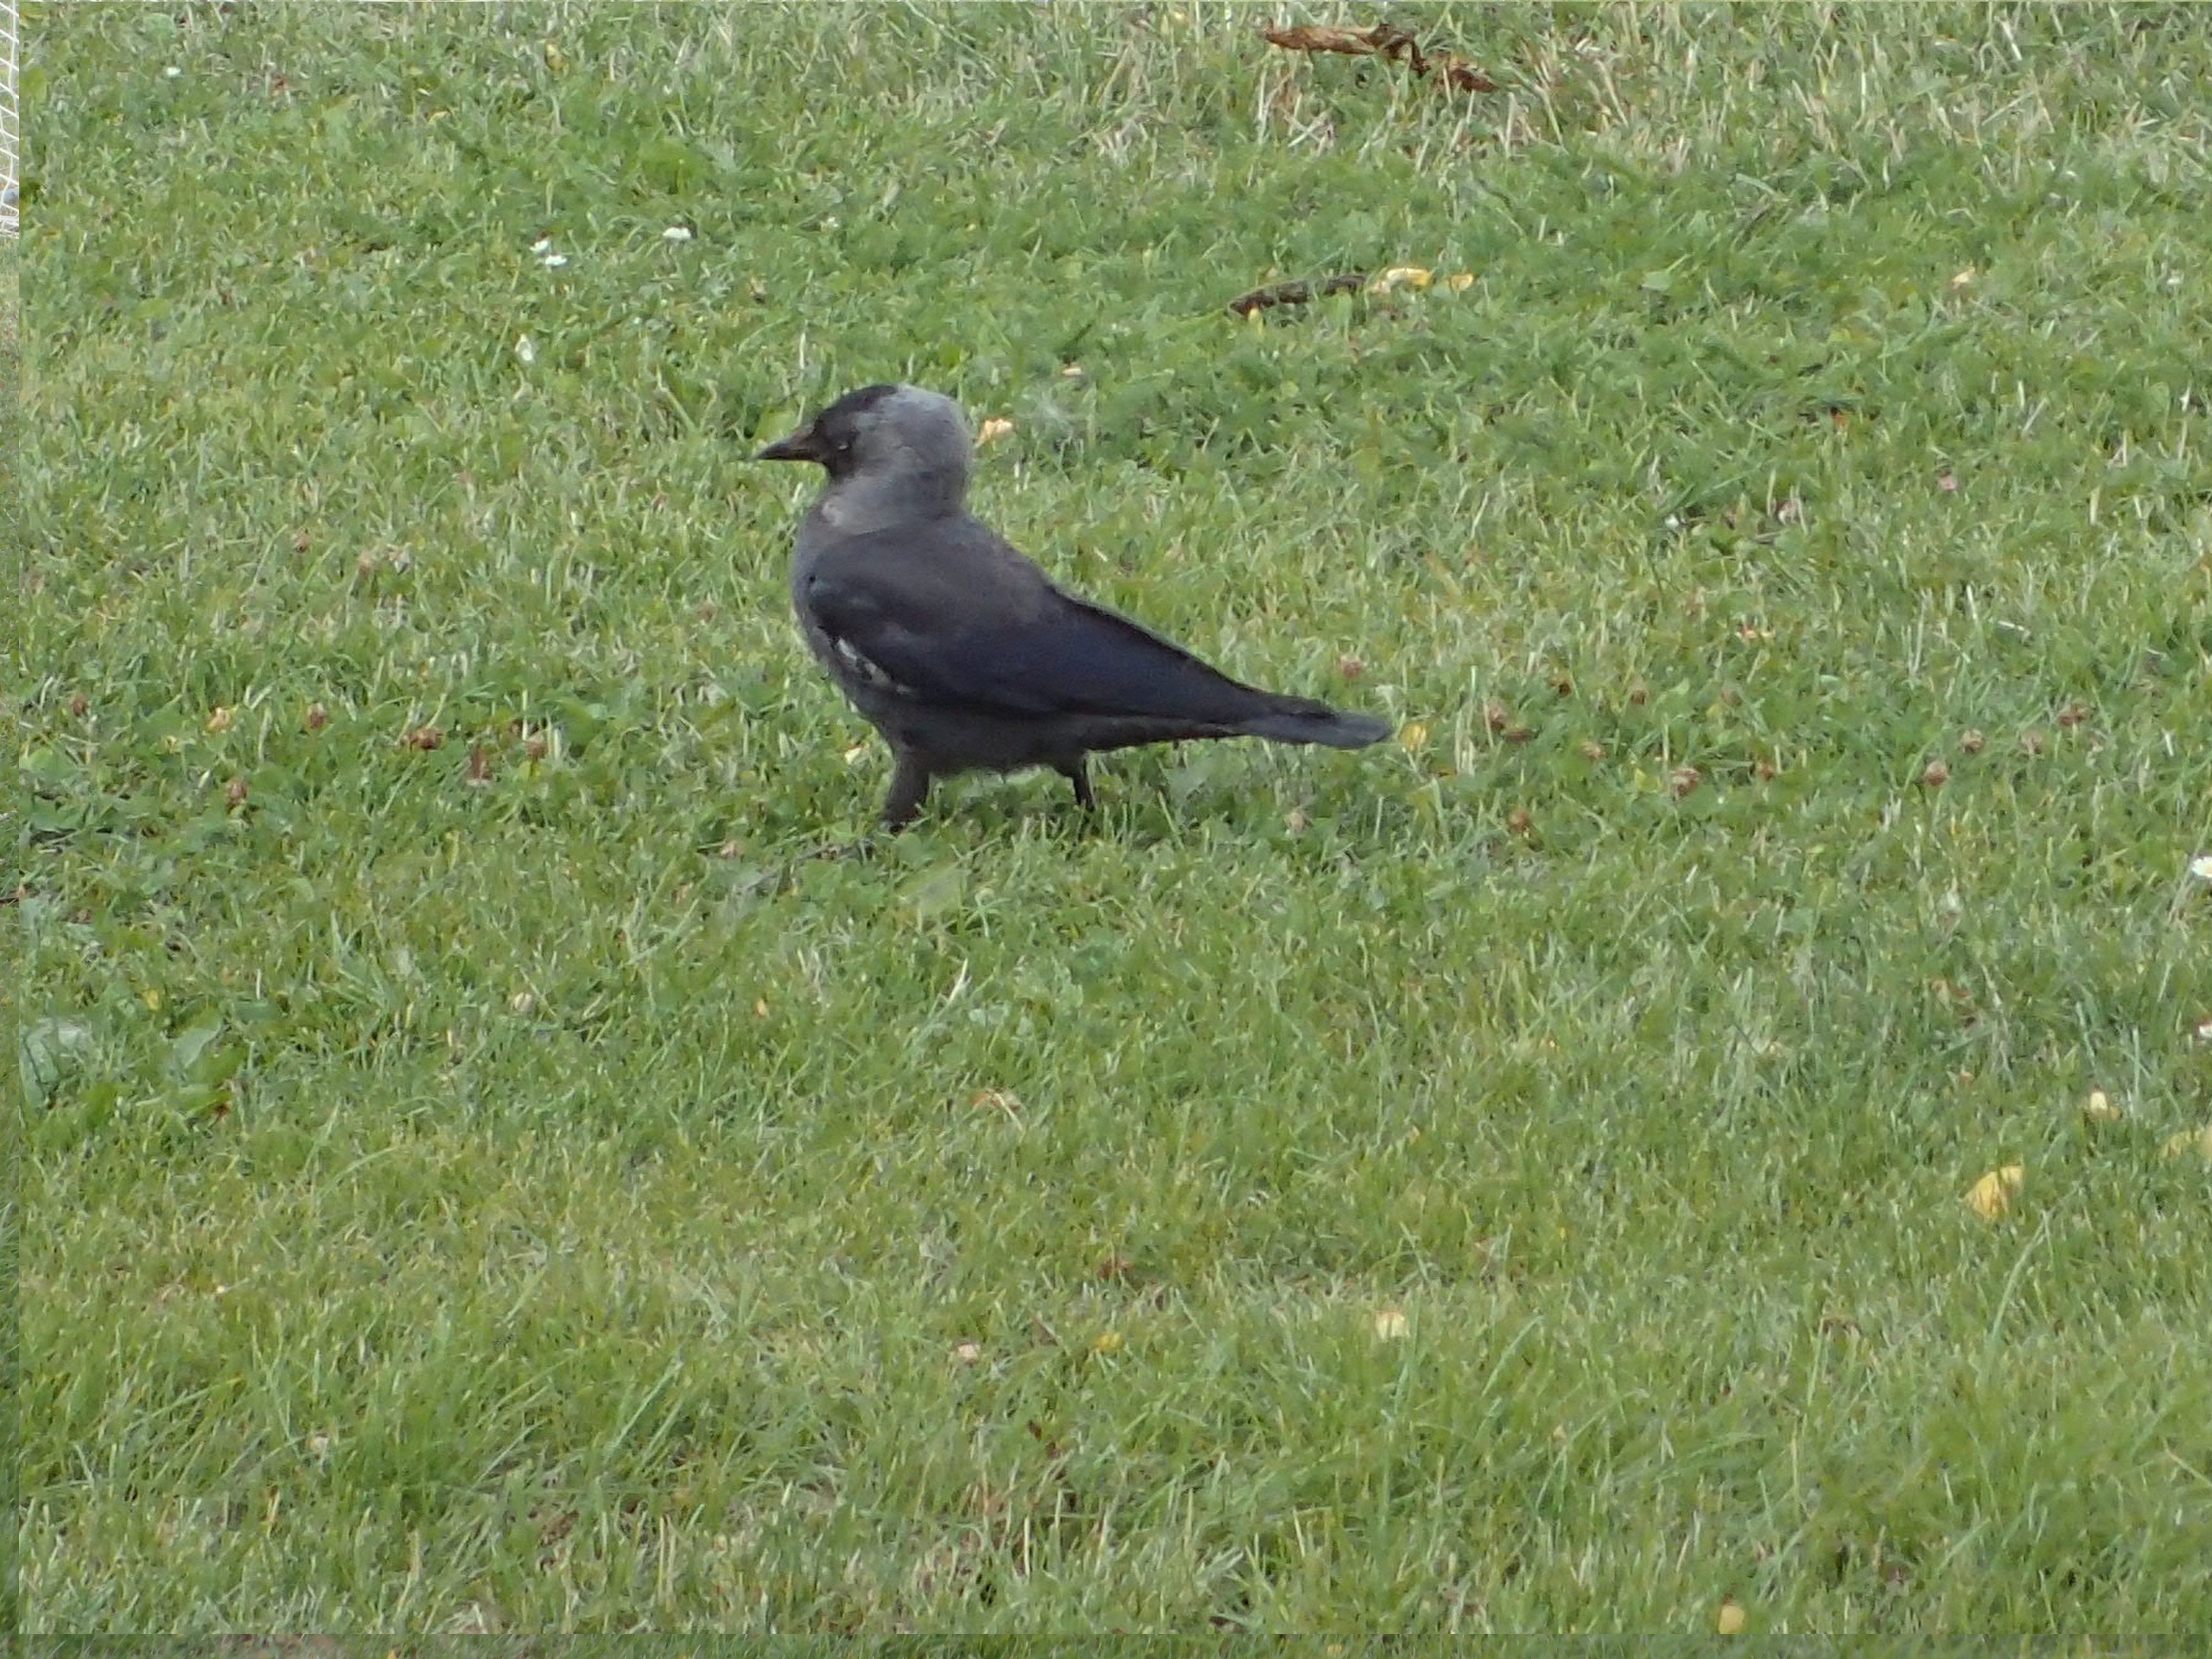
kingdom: Animalia
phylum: Chordata
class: Aves
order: Passeriformes
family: Corvidae
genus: Coloeus
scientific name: Coloeus monedula
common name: Allike
